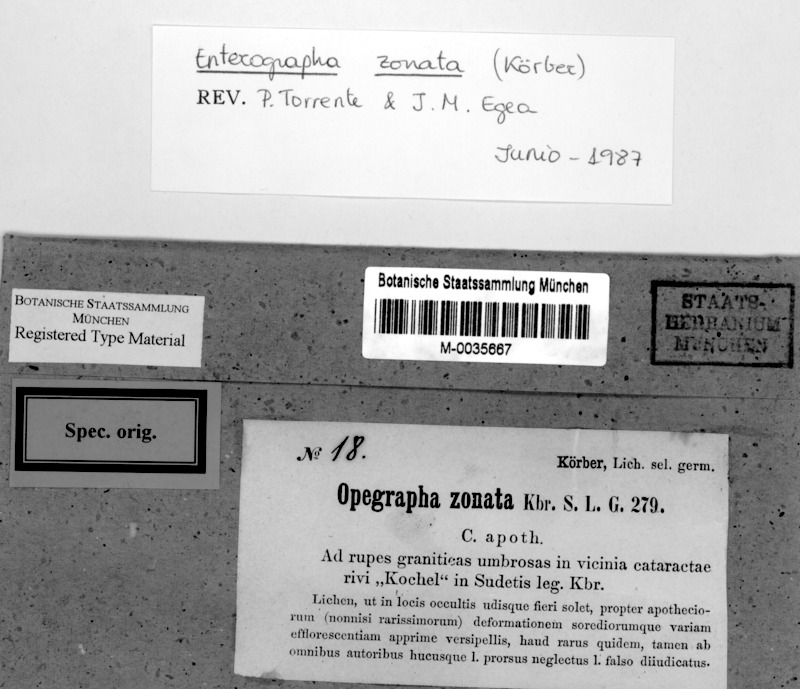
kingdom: Fungi
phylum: Ascomycota
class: Arthoniomycetes
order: Arthoniales
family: Roccellaceae
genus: Enterographa
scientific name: Enterographa zonata
